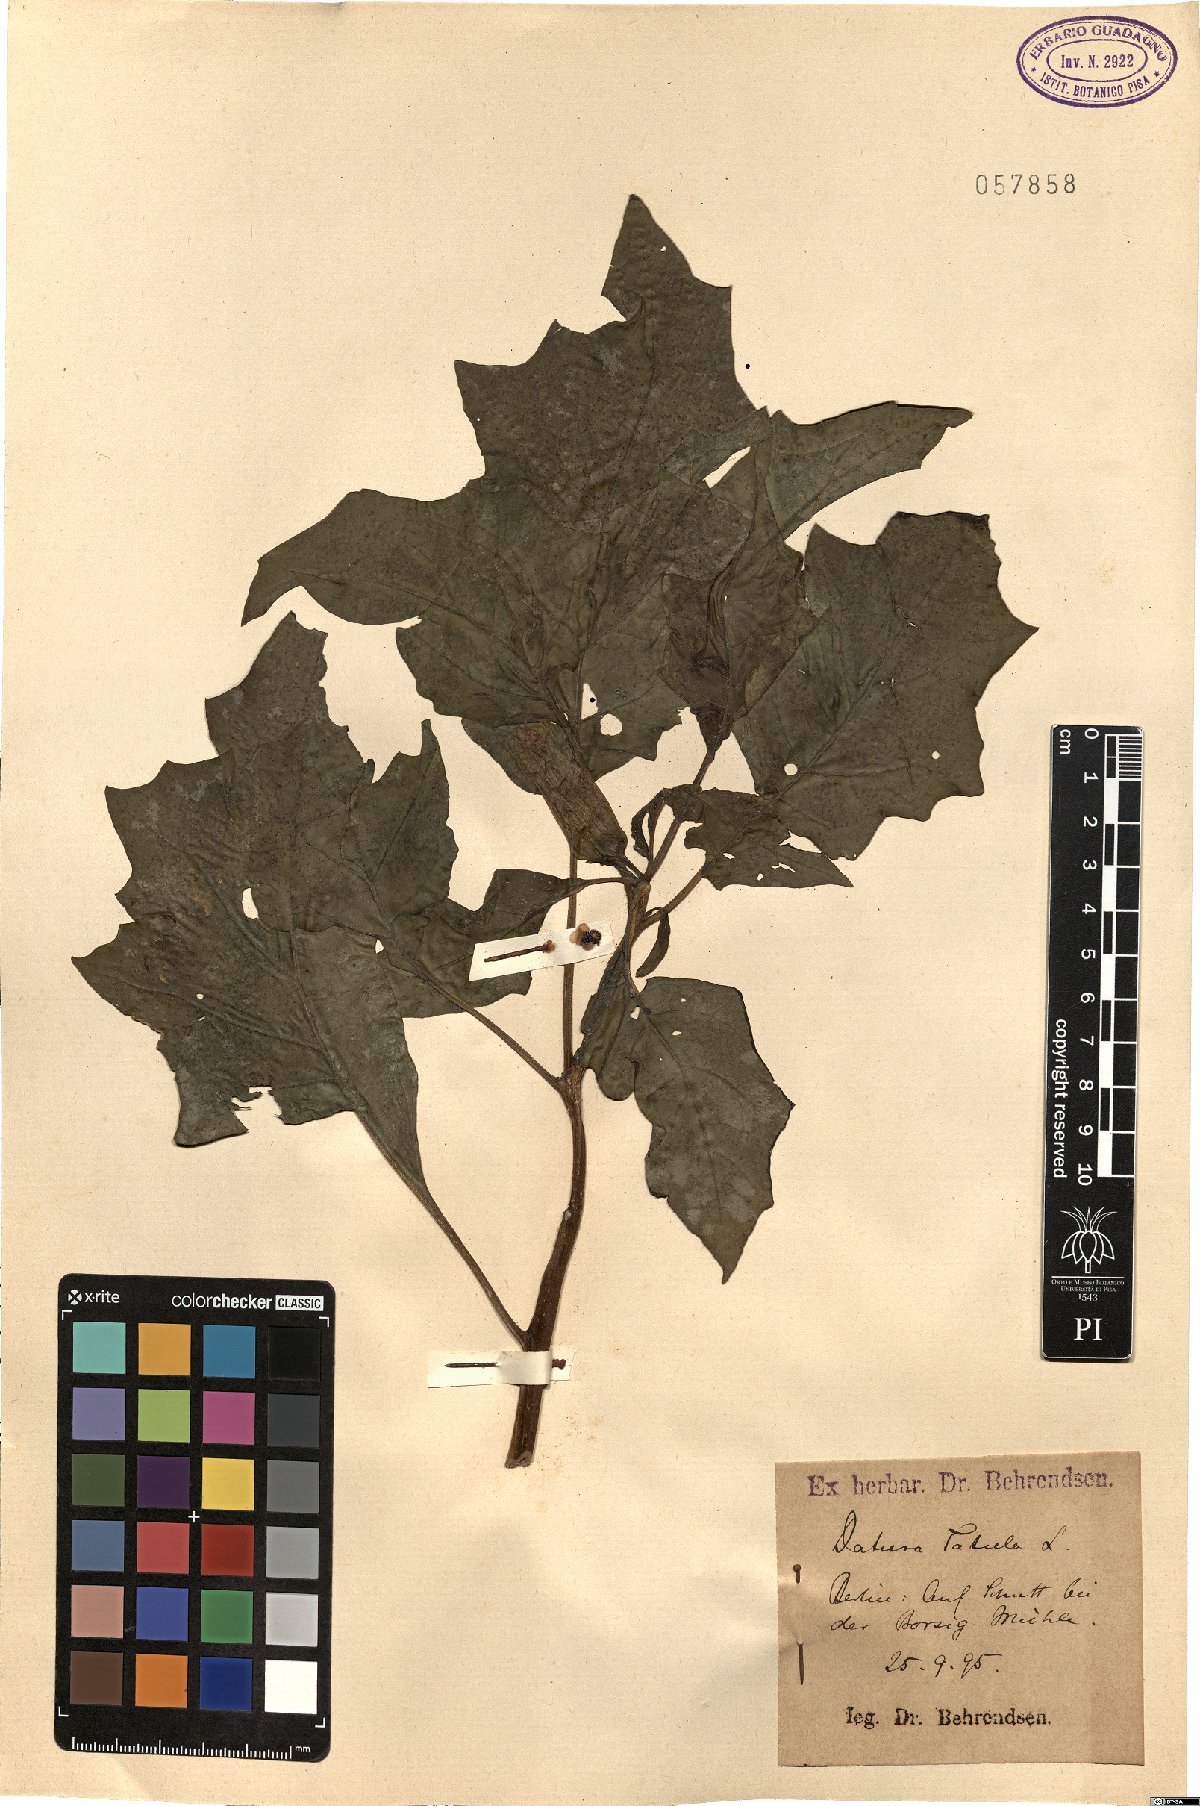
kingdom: Plantae
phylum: Tracheophyta
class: Magnoliopsida
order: Solanales
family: Solanaceae
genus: Datura
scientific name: Datura stramonium
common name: Thorn-apple
